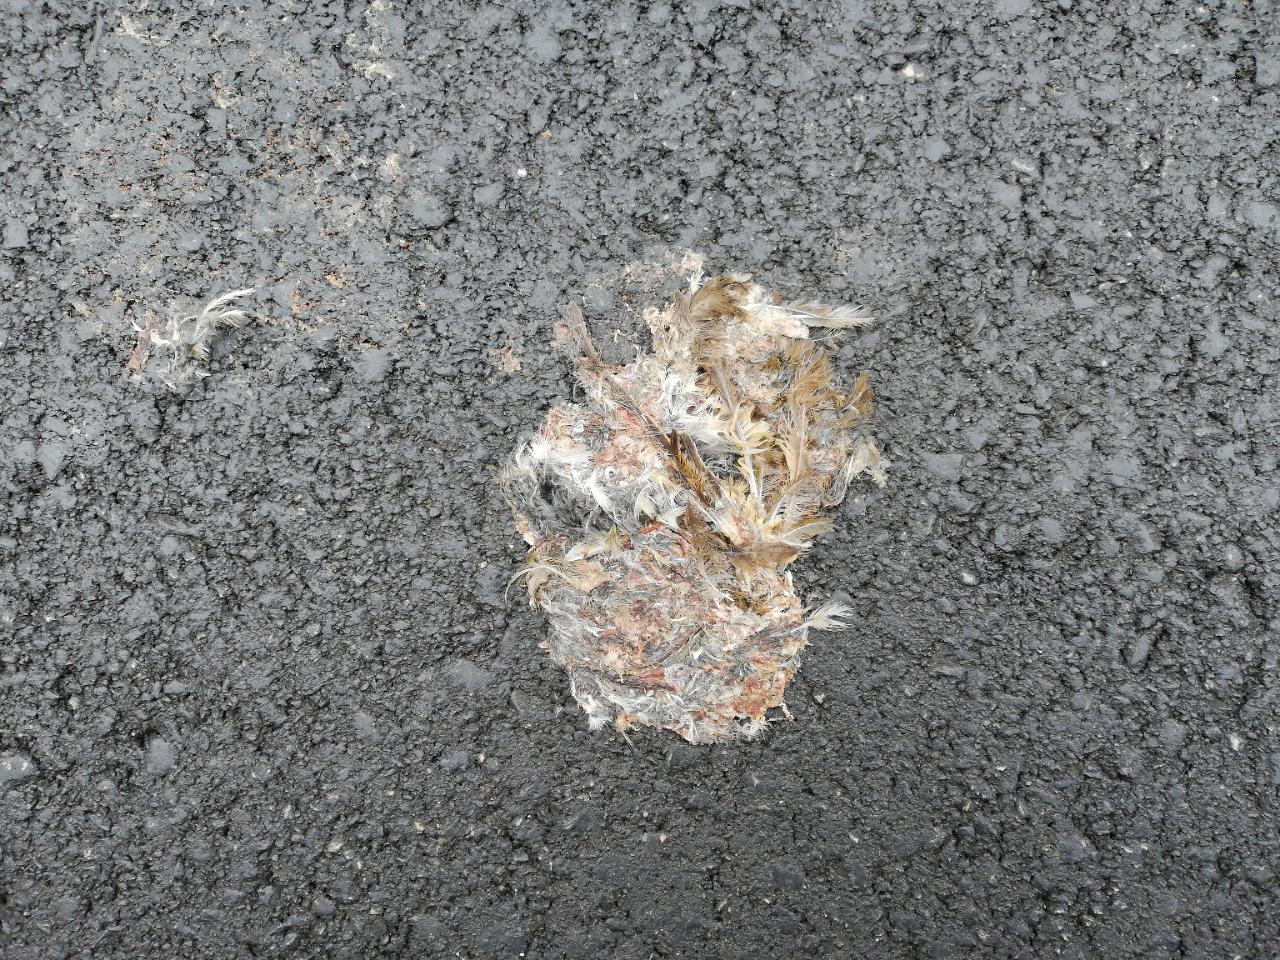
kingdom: Animalia
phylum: Chordata
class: Aves
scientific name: Aves
